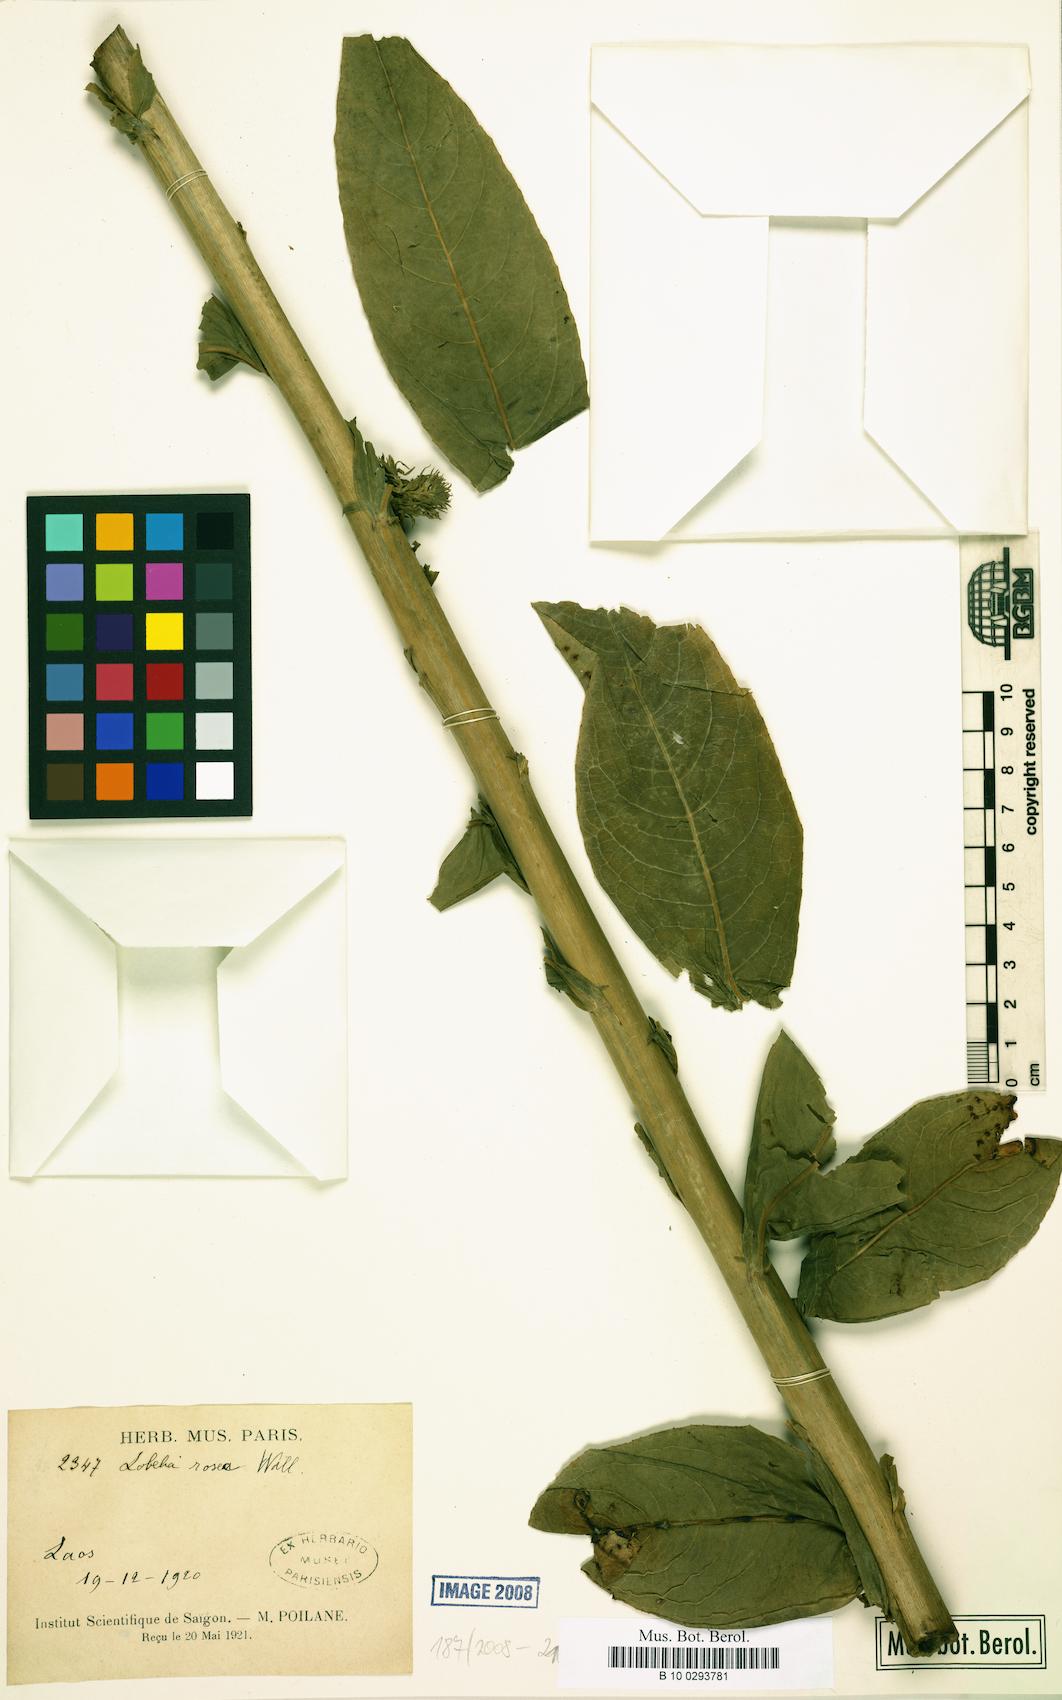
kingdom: Plantae
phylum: Tracheophyta
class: Magnoliopsida
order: Asterales
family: Campanulaceae
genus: Lobelia
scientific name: Lobelia rosea
